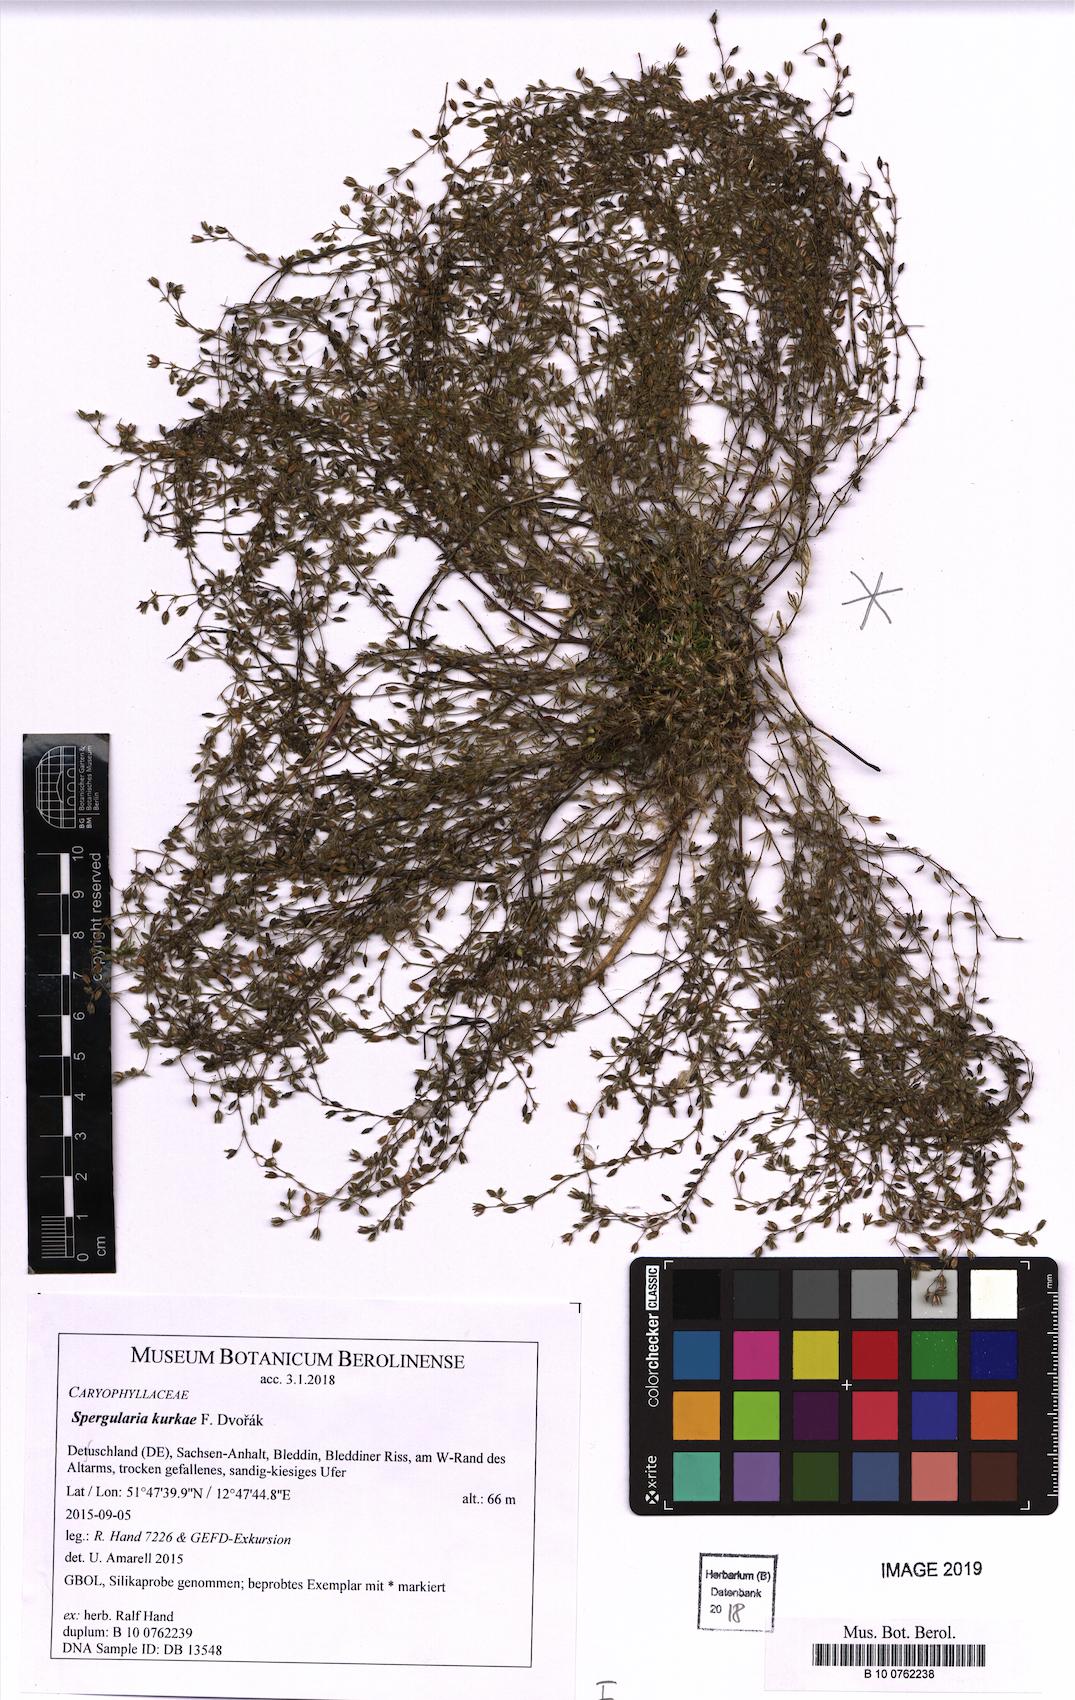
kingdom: Plantae
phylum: Tracheophyta
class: Magnoliopsida
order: Caryophyllales
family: Caryophyllaceae
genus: Spergularia
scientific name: Spergularia kurkae
